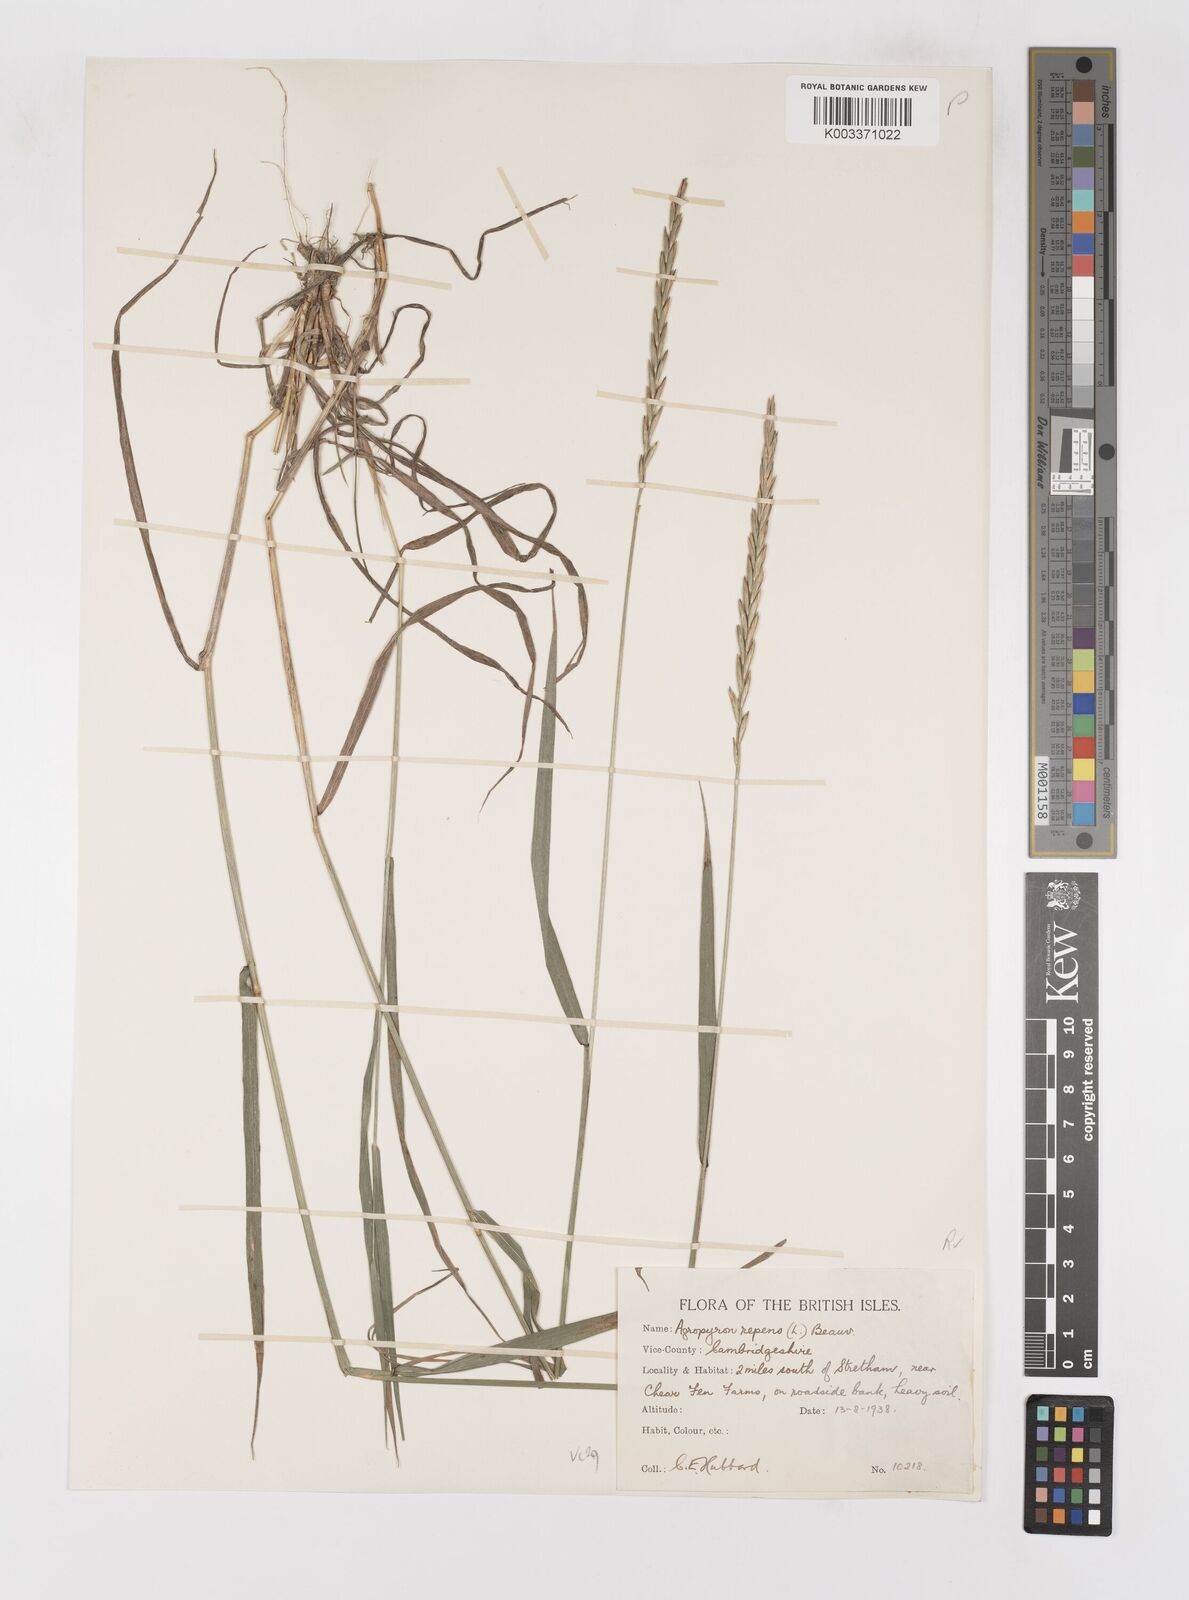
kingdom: Plantae
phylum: Tracheophyta
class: Liliopsida
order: Poales
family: Poaceae
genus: Elymus
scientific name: Elymus repens
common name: Quackgrass
